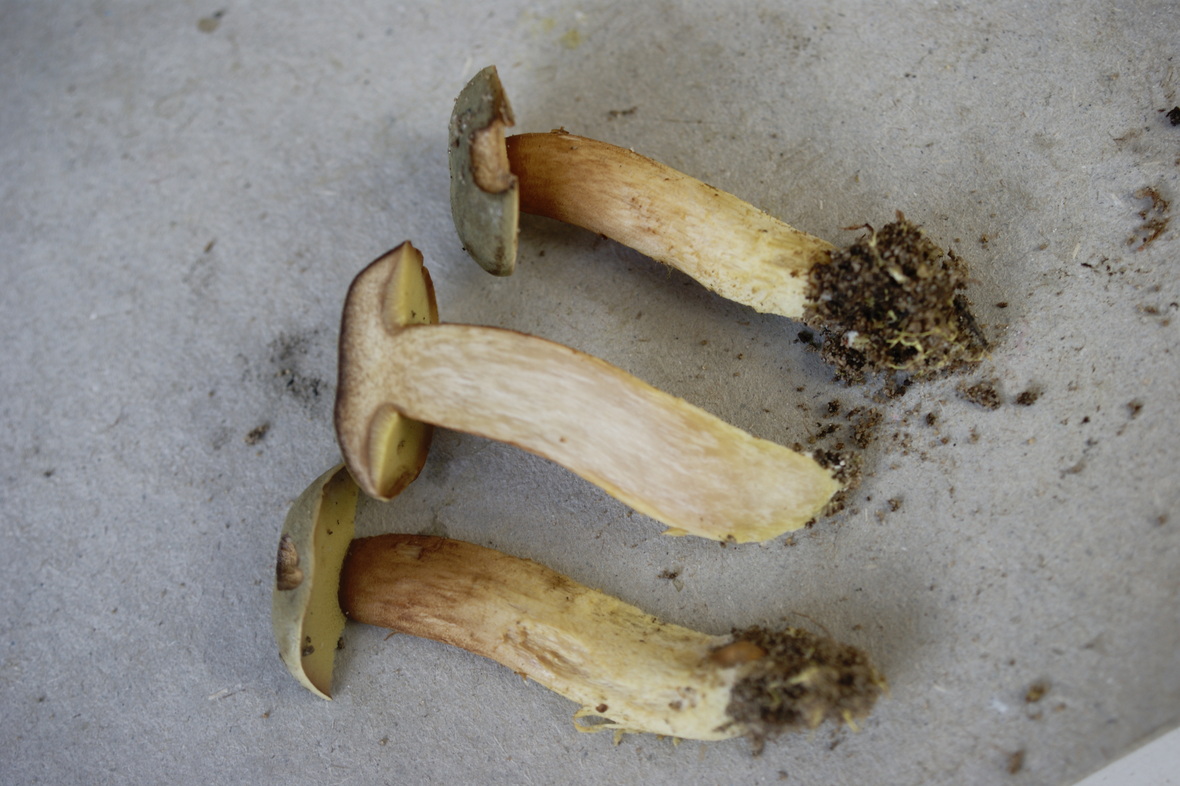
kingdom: Fungi
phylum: Basidiomycota
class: Agaricomycetes
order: Boletales
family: Boletaceae
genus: Xerocomus
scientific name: Xerocomus ferrugineus
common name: vaskeskinds-rørhat
